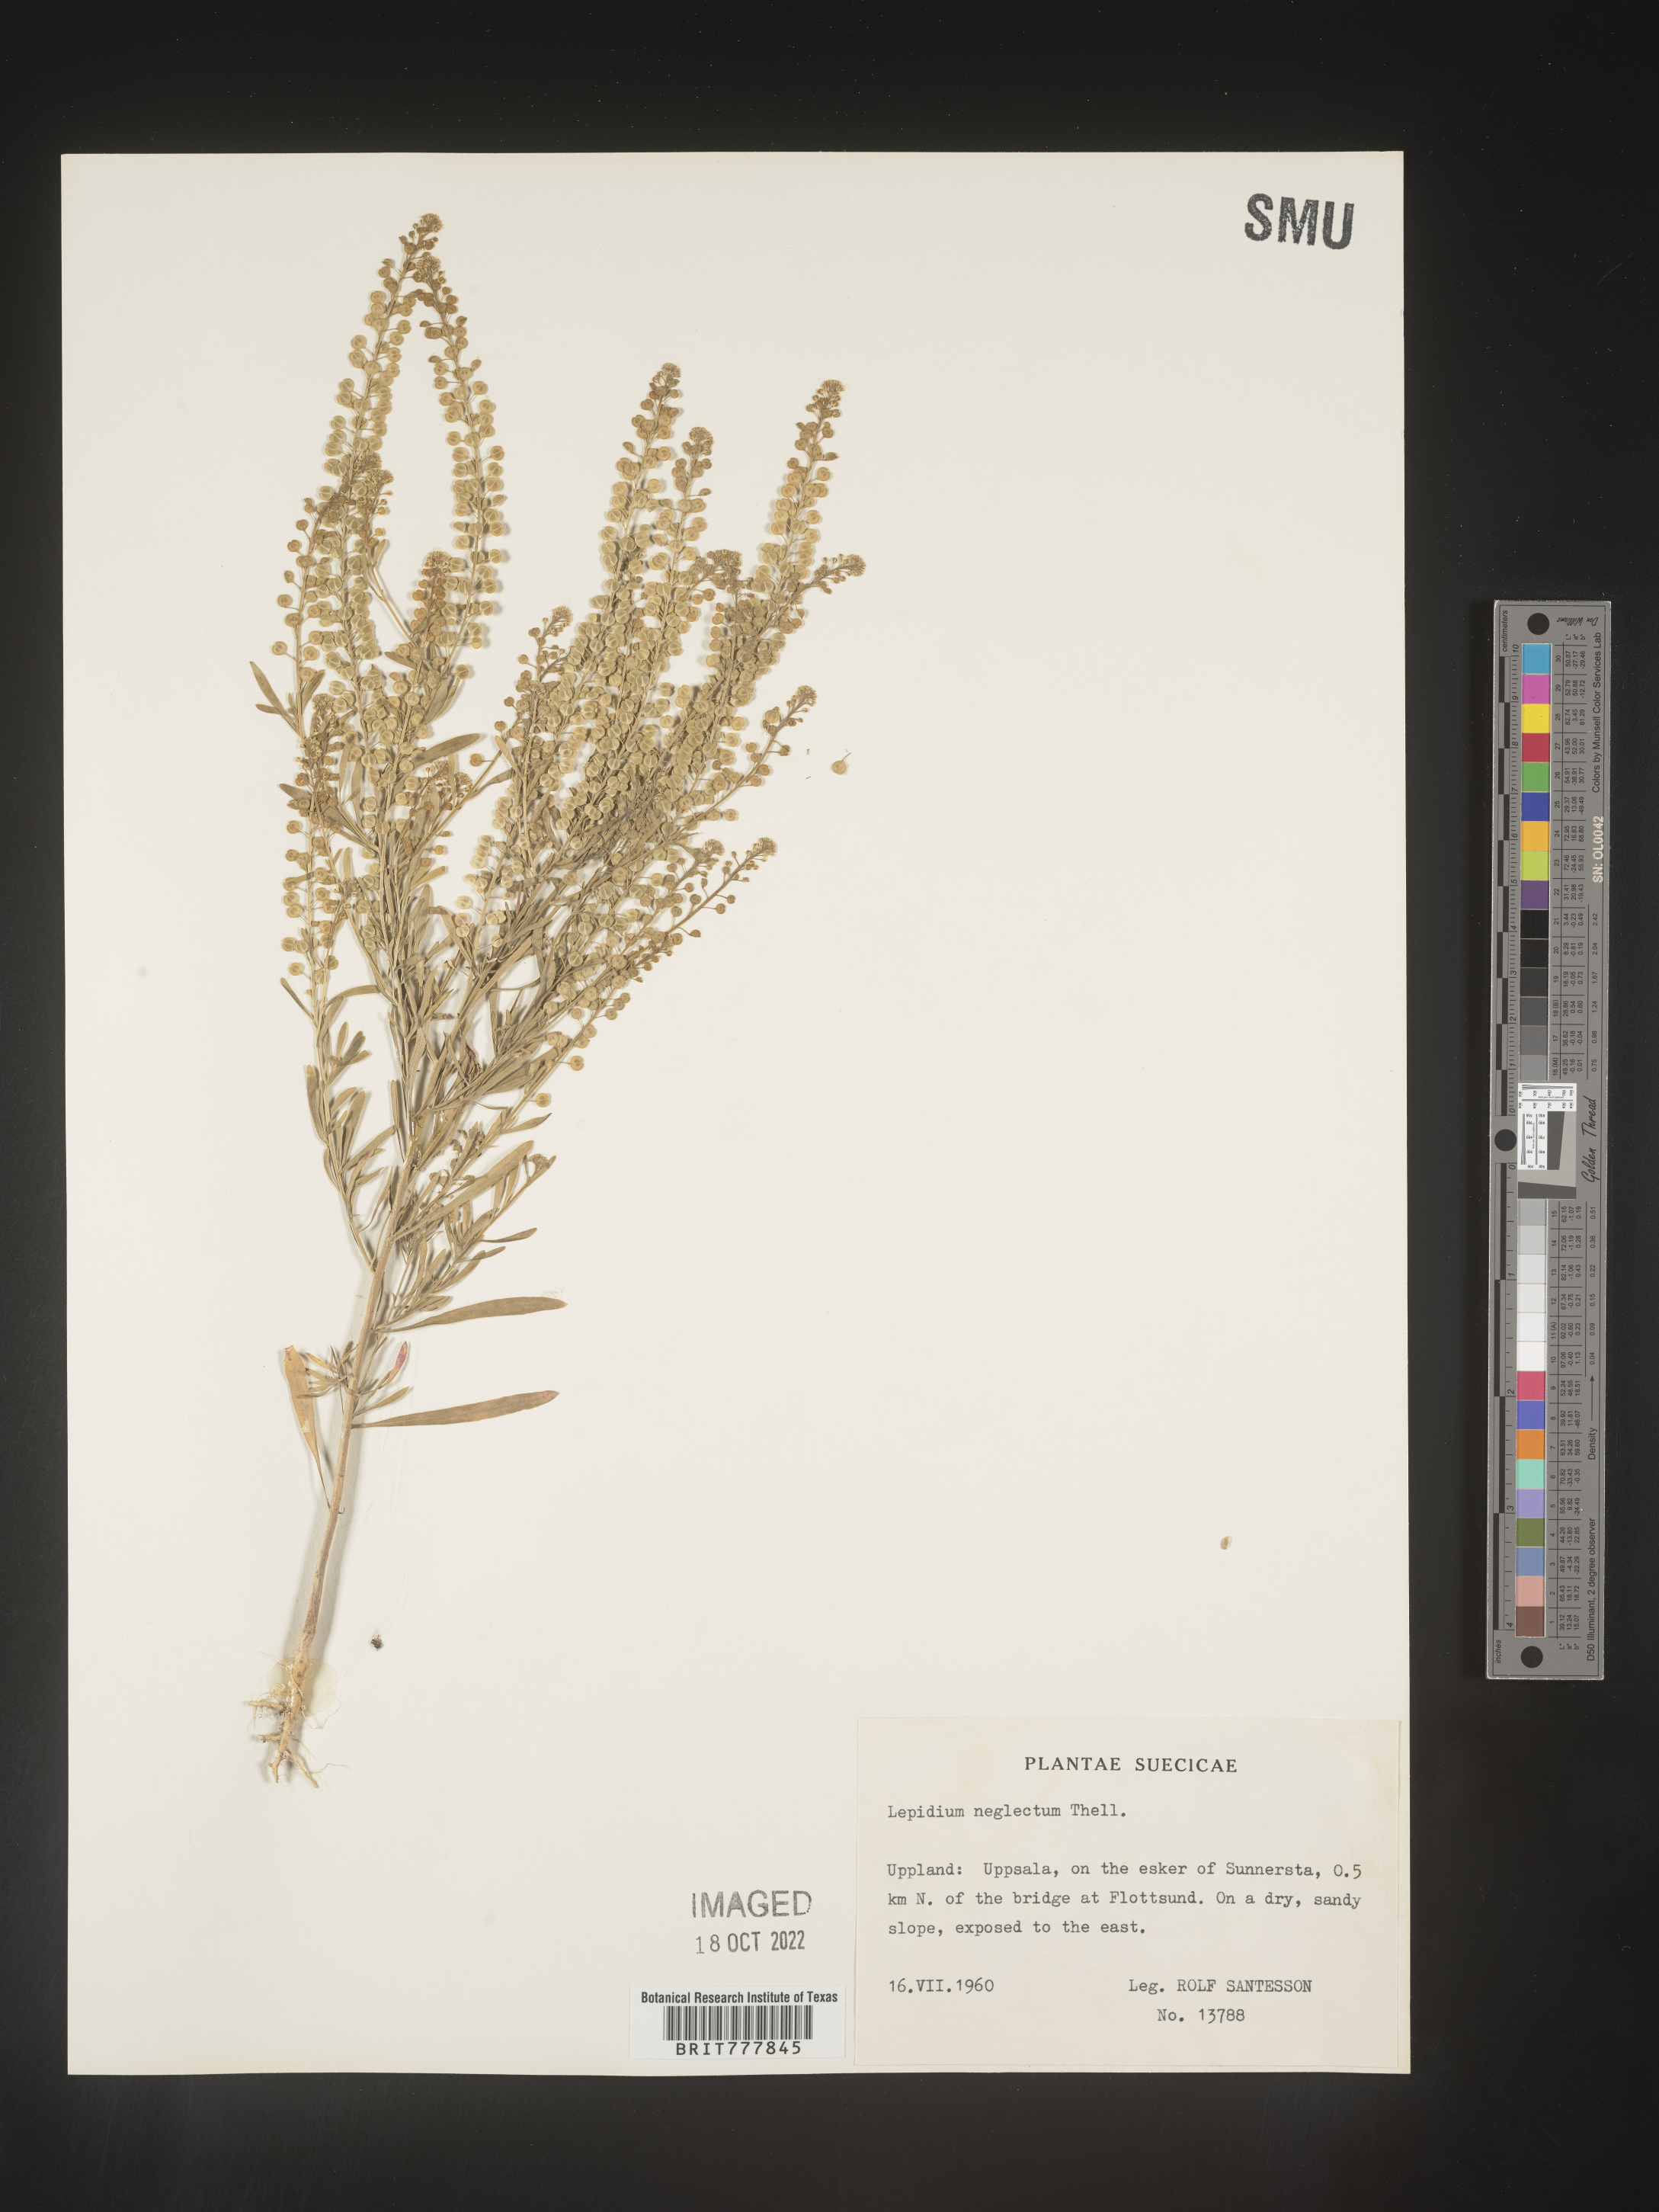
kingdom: Plantae
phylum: Tracheophyta
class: Magnoliopsida
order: Brassicales
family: Brassicaceae
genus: Lepidium
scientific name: Lepidium
